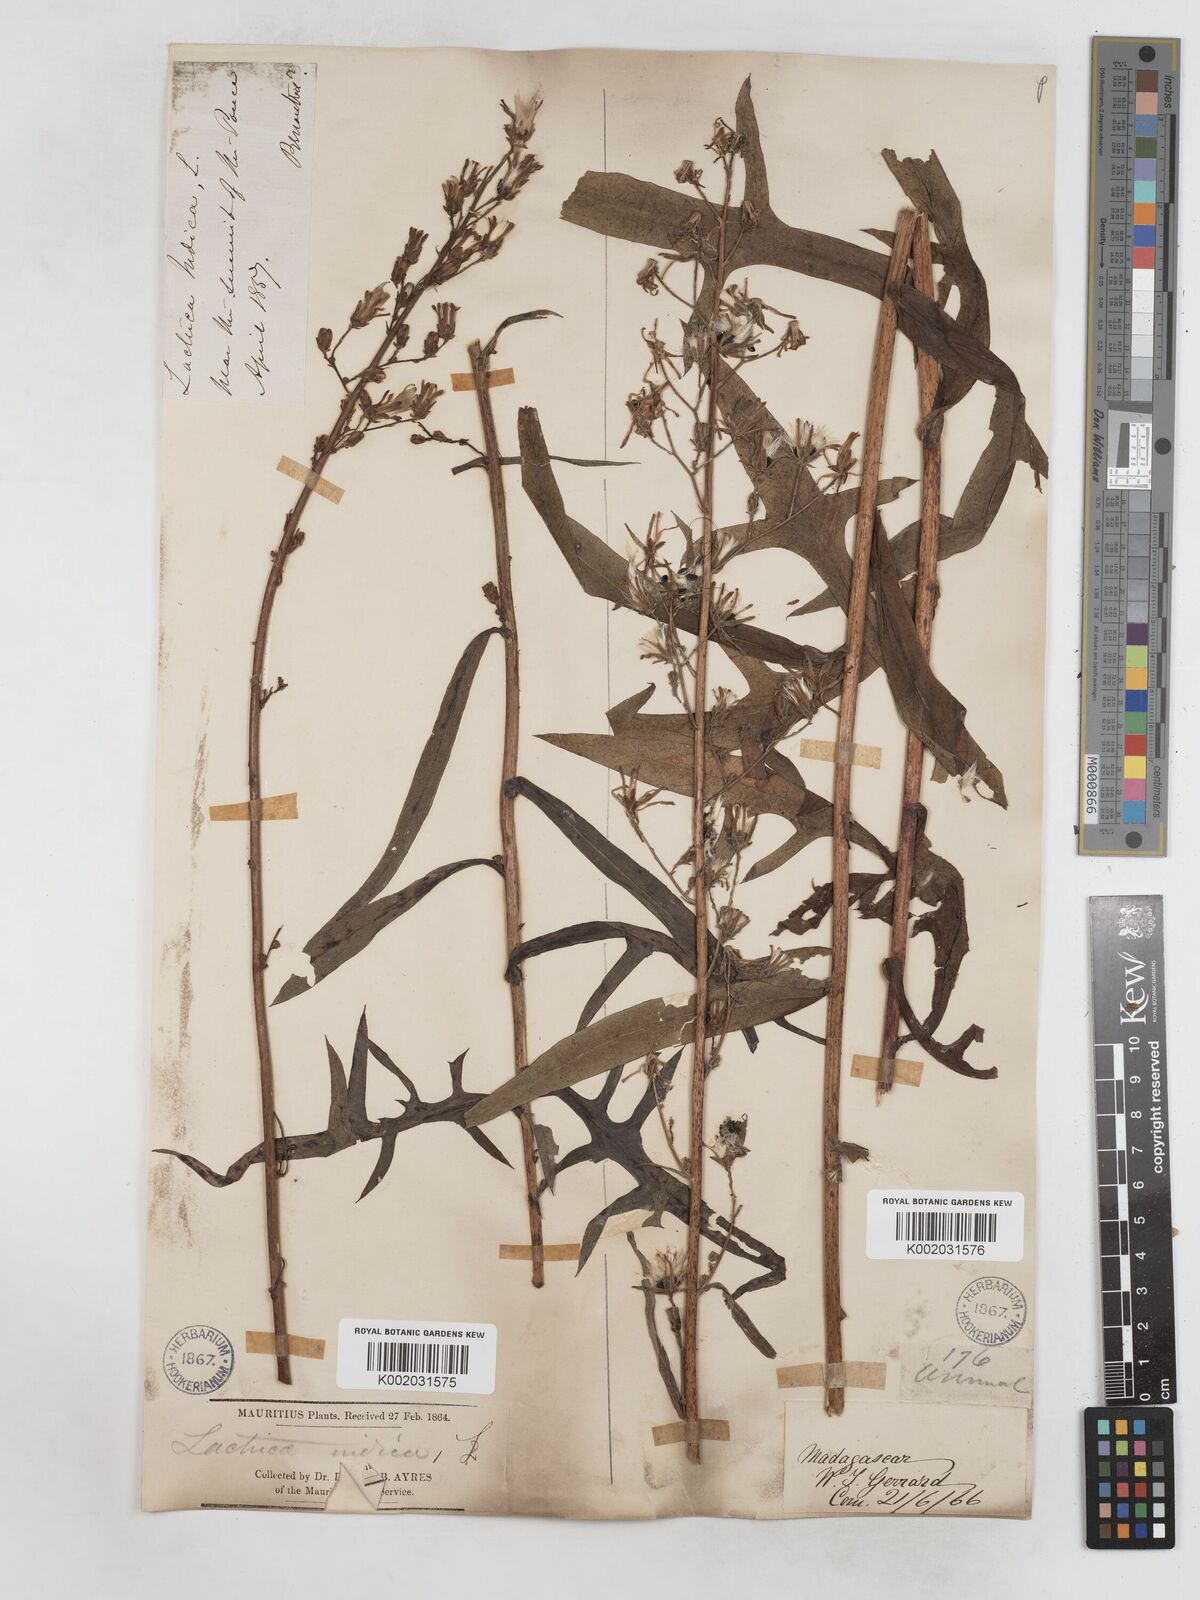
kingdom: Plantae
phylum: Tracheophyta
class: Magnoliopsida
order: Asterales
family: Asteraceae
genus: Lactuca
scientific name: Lactuca
